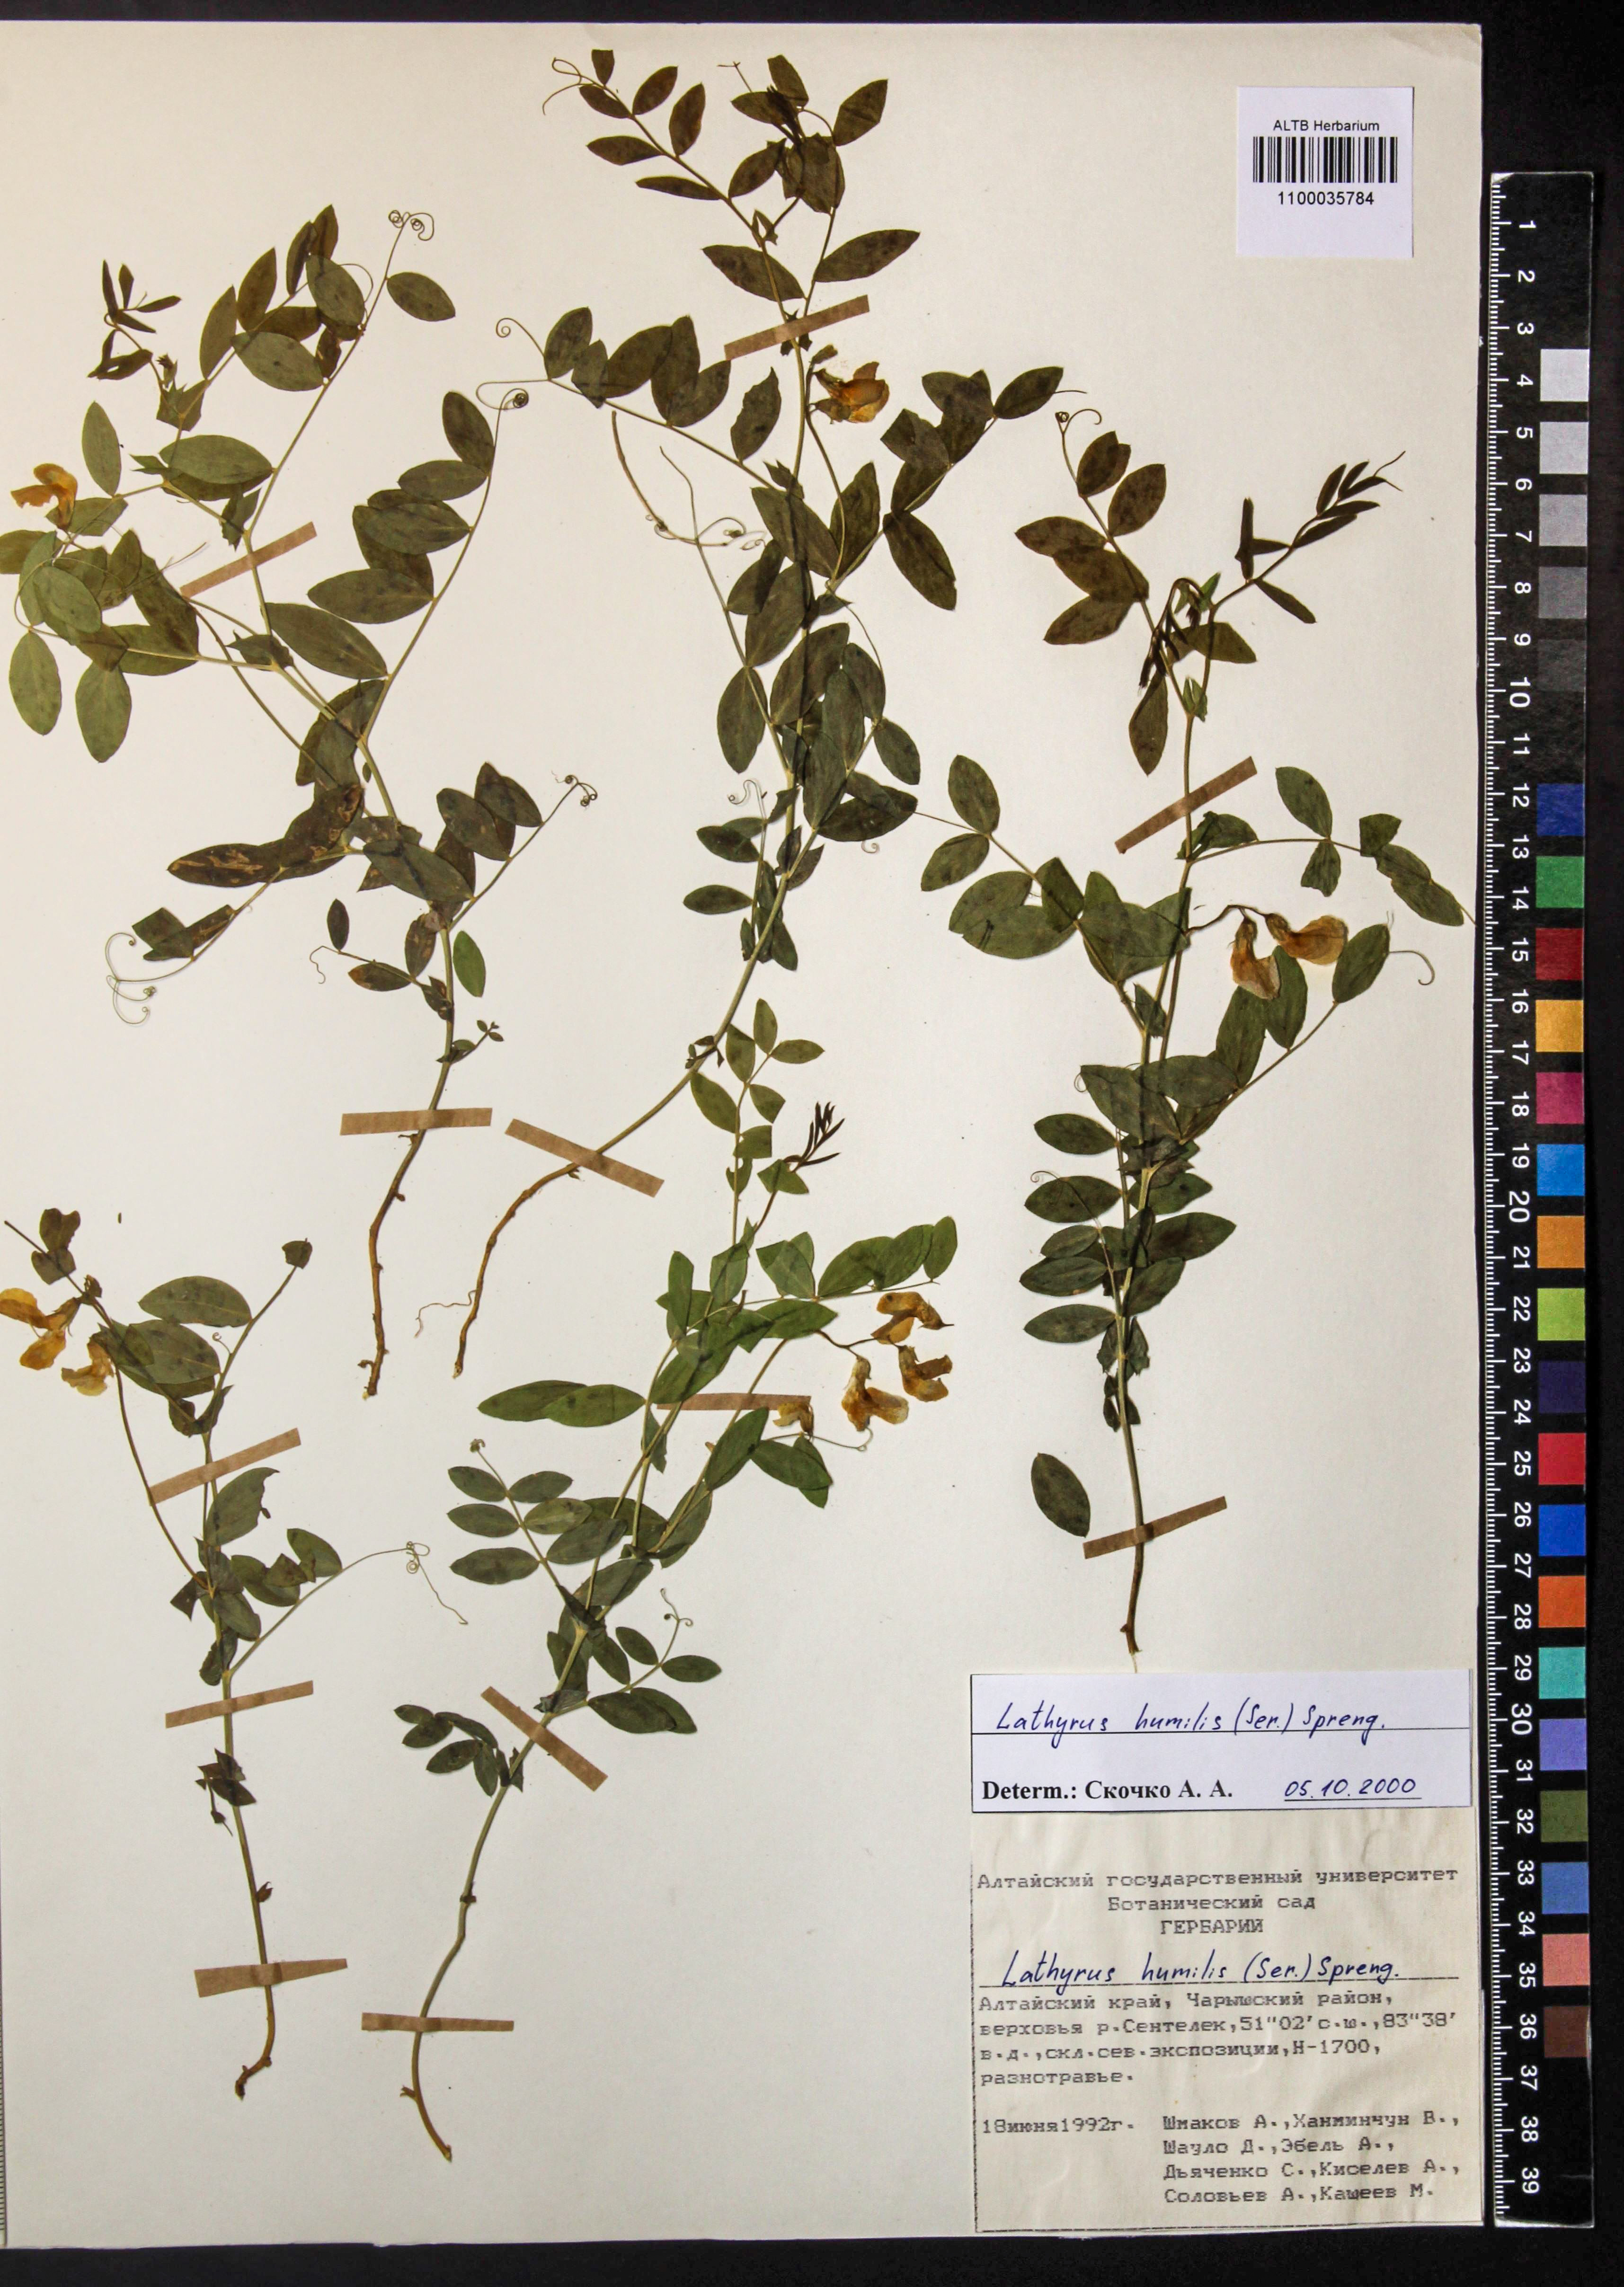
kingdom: Plantae
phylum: Tracheophyta
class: Magnoliopsida
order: Fabales
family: Fabaceae
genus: Lathyrus
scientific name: Lathyrus humilis
